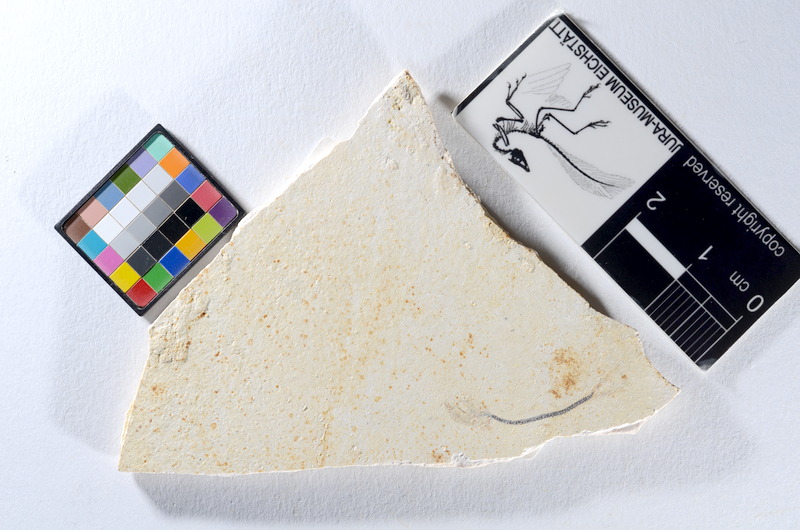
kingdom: Animalia
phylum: Chordata
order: Salmoniformes
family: Orthogonikleithridae
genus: Orthogonikleithrus
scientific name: Orthogonikleithrus hoelli
